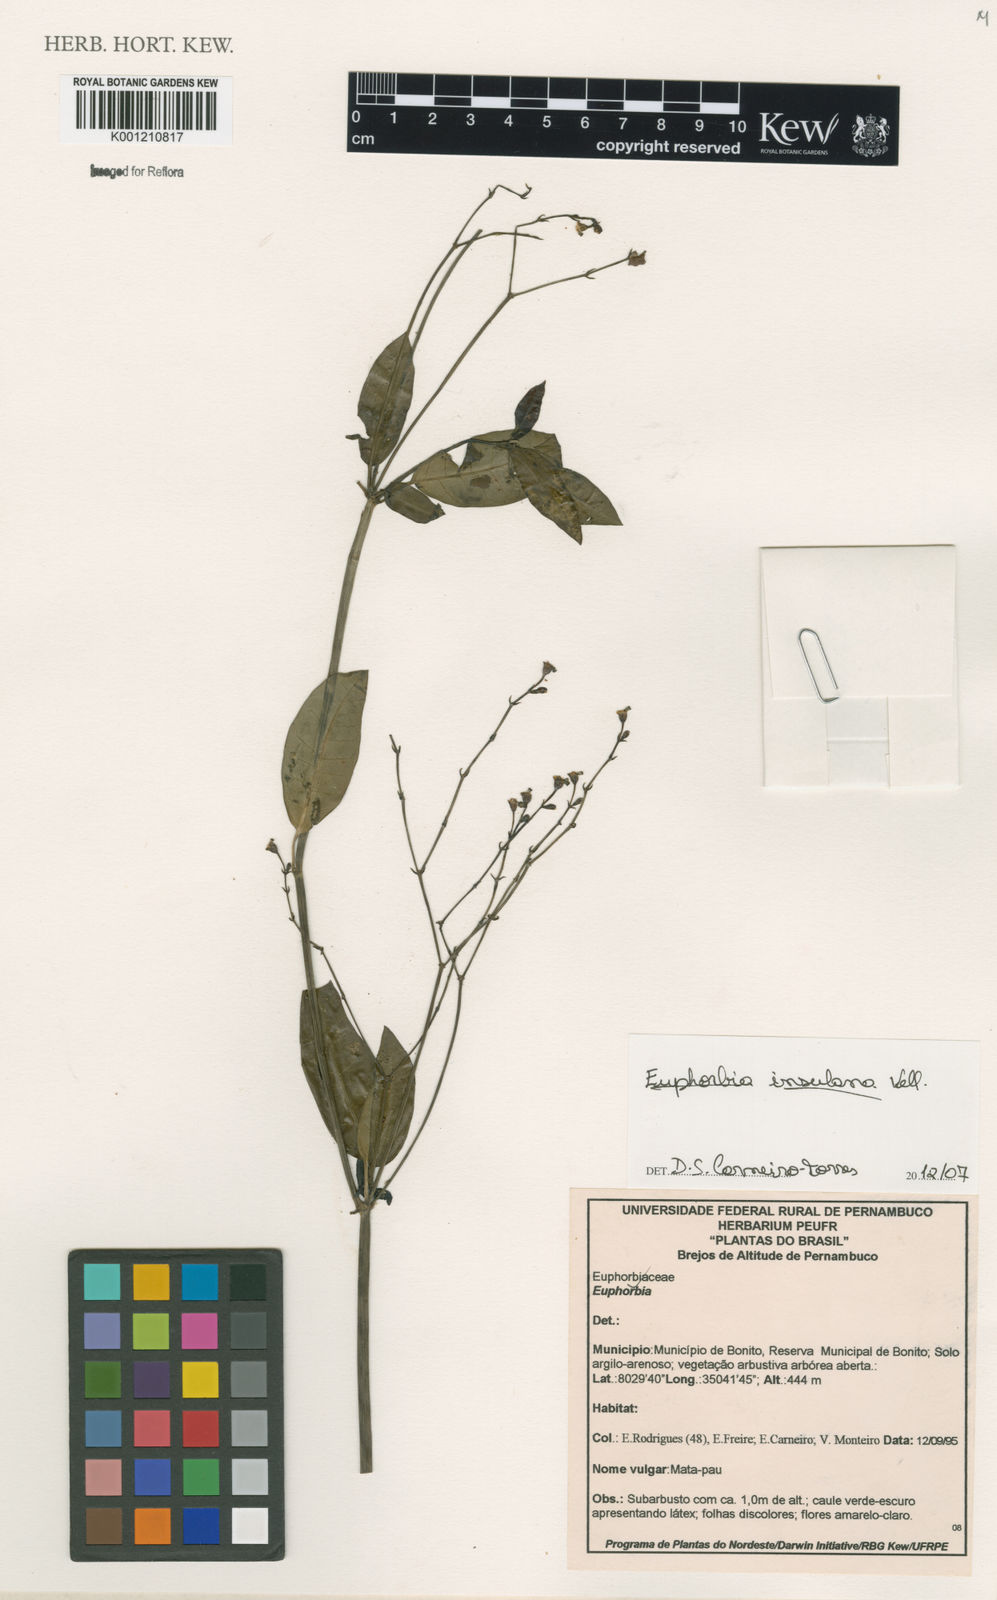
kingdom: Plantae
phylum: Tracheophyta
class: Magnoliopsida
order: Malpighiales
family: Euphorbiaceae
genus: Euphorbia
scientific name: Euphorbia insulana
